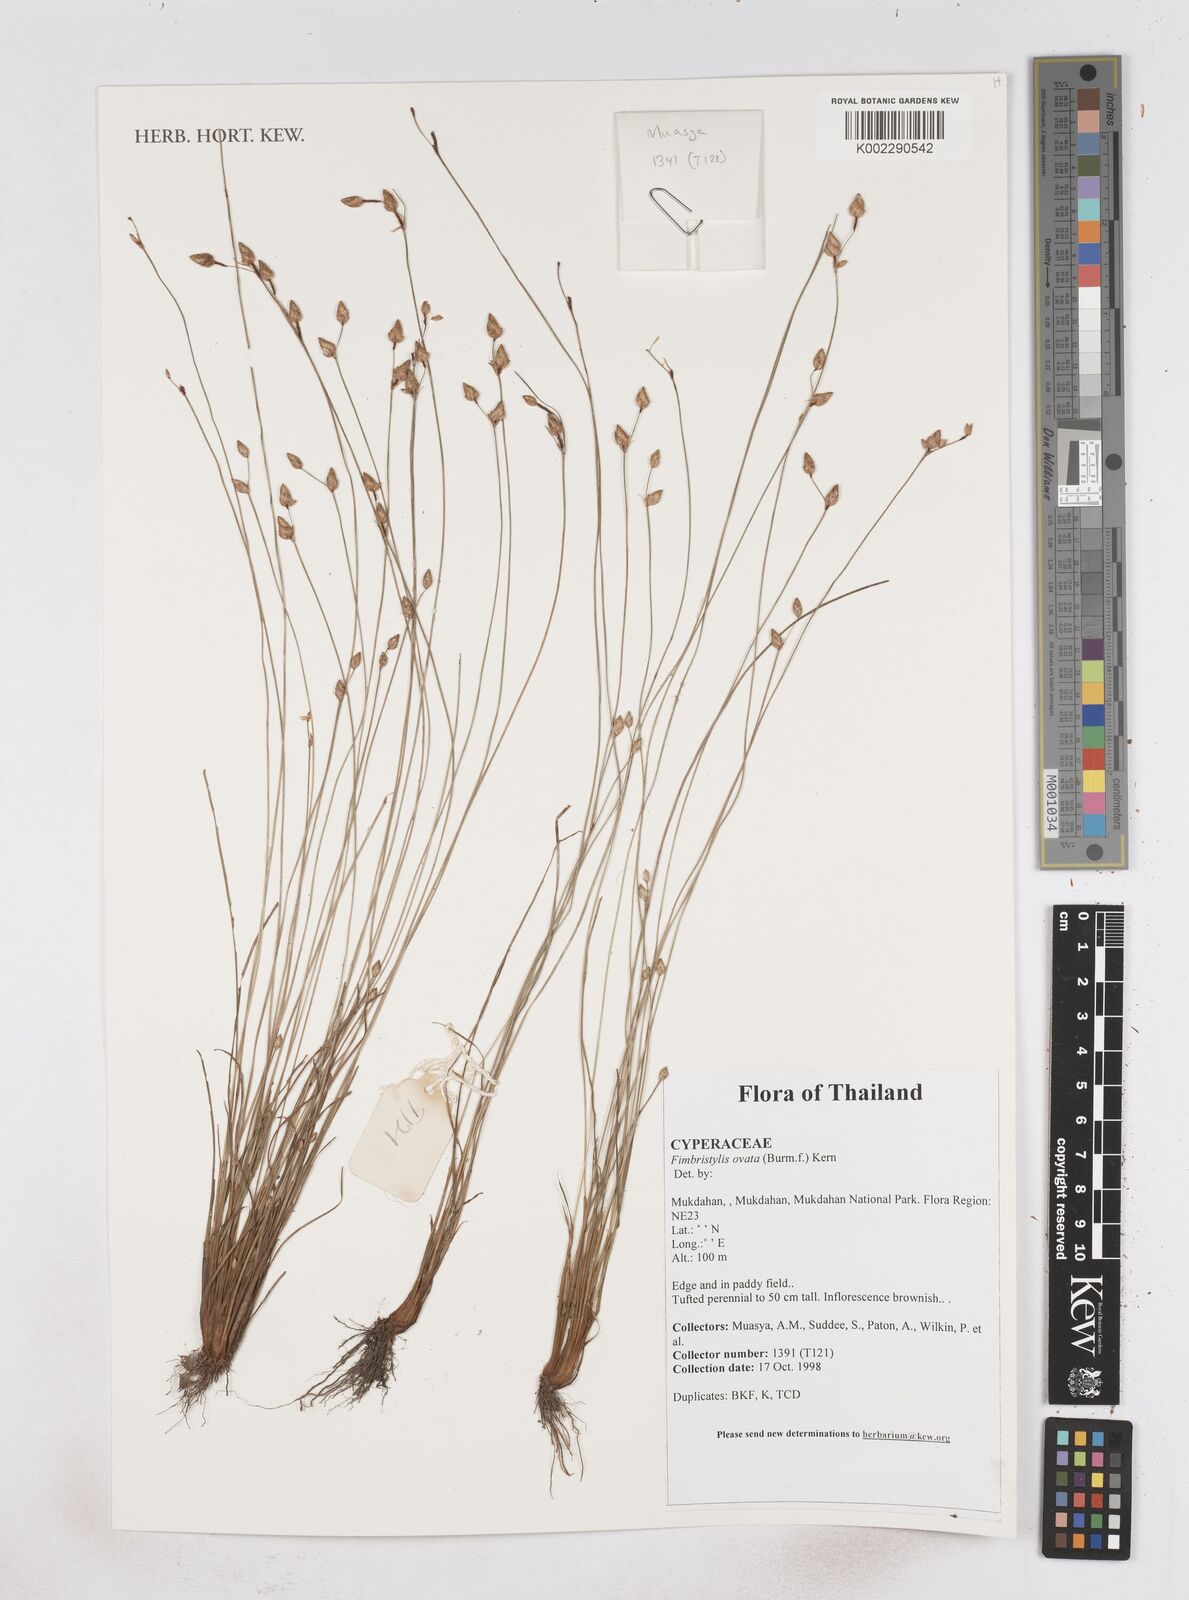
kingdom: Plantae
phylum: Tracheophyta
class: Liliopsida
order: Poales
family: Cyperaceae
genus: Abildgaardia
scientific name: Abildgaardia ovata
